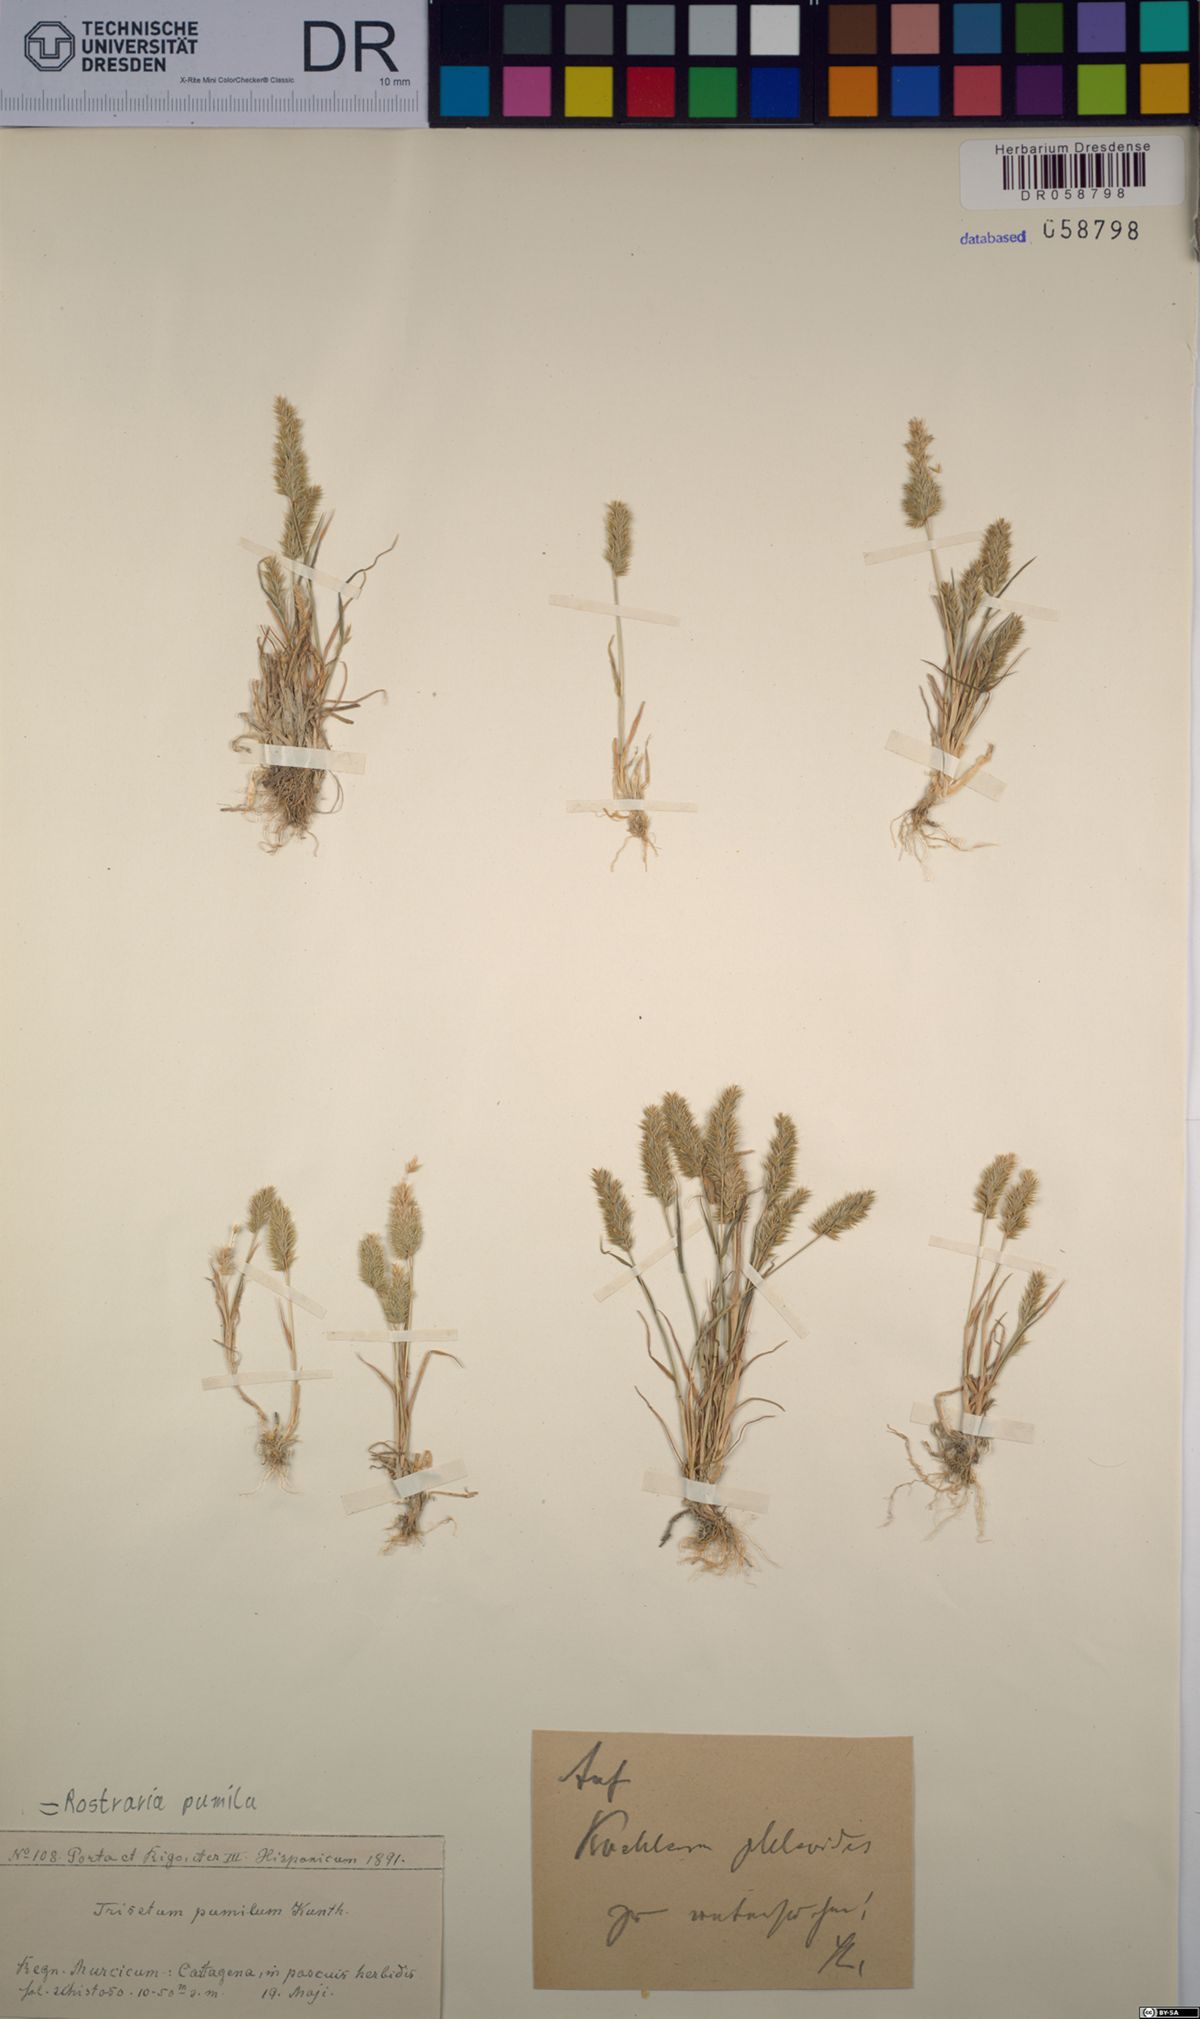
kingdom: Plantae
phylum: Tracheophyta
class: Liliopsida
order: Poales
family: Poaceae
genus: Rostraria
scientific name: Rostraria pumila
